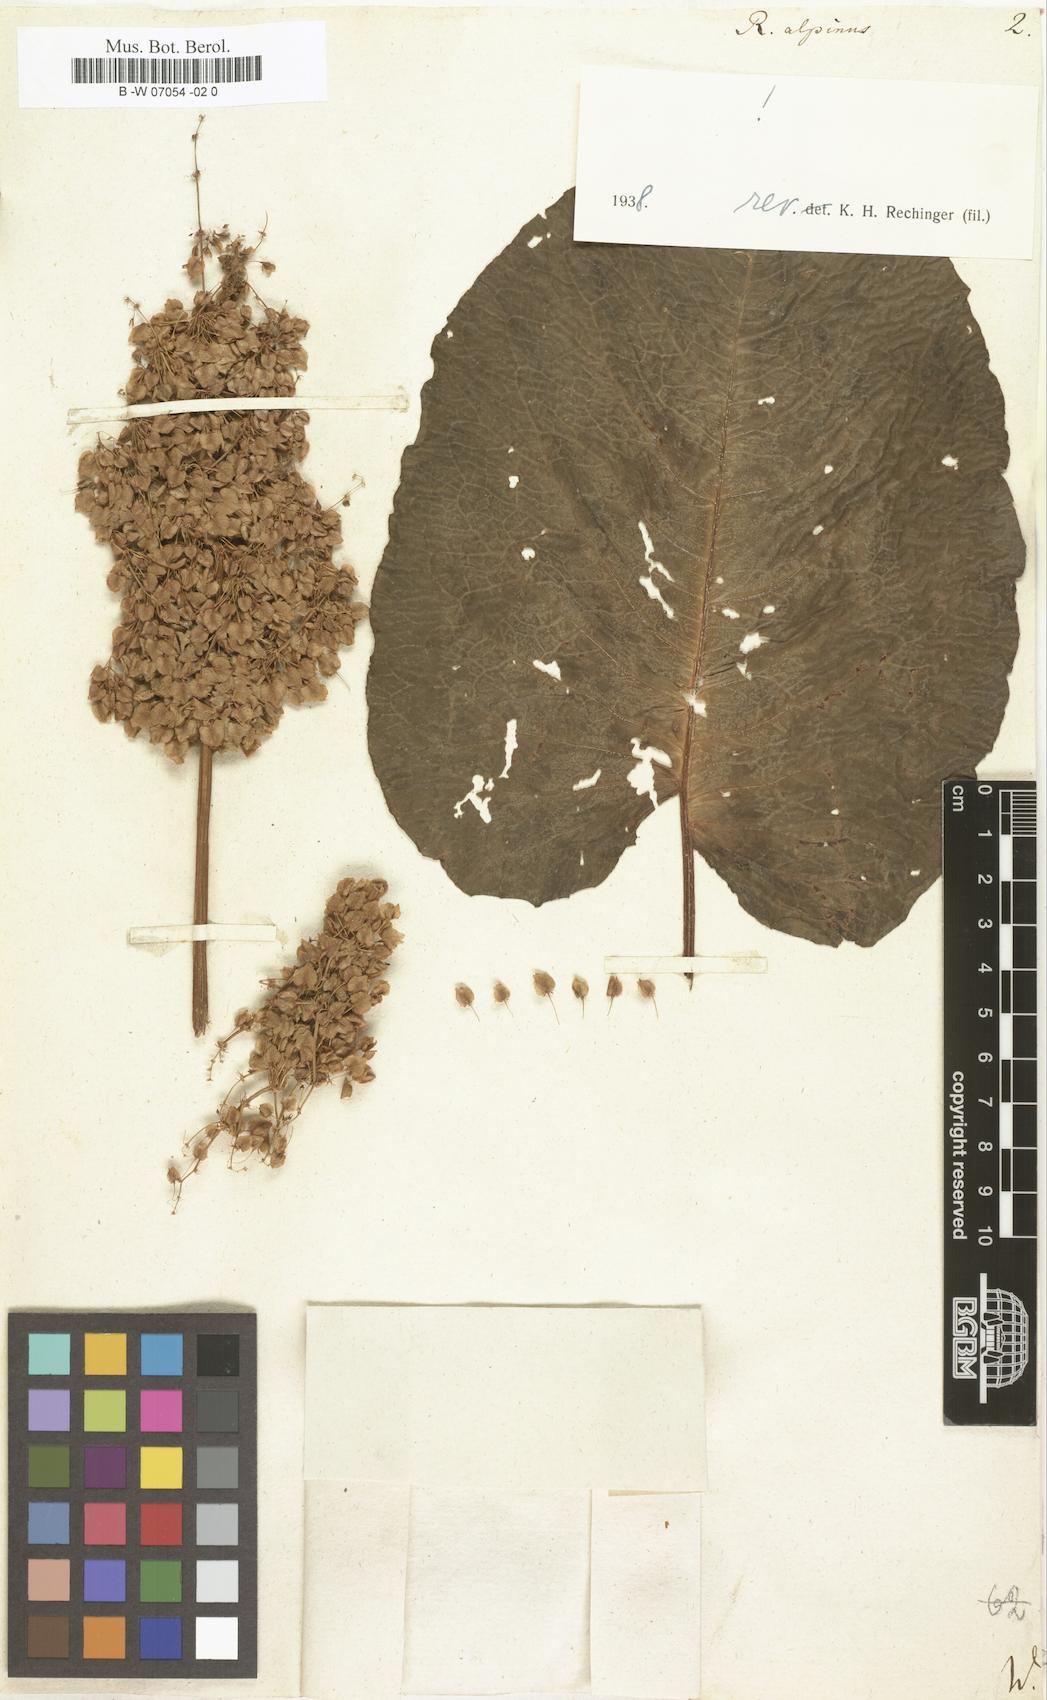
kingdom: Plantae
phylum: Tracheophyta
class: Magnoliopsida
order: Caryophyllales
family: Polygonaceae
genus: Rumex
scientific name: Rumex alpinus
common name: Alpine dock
